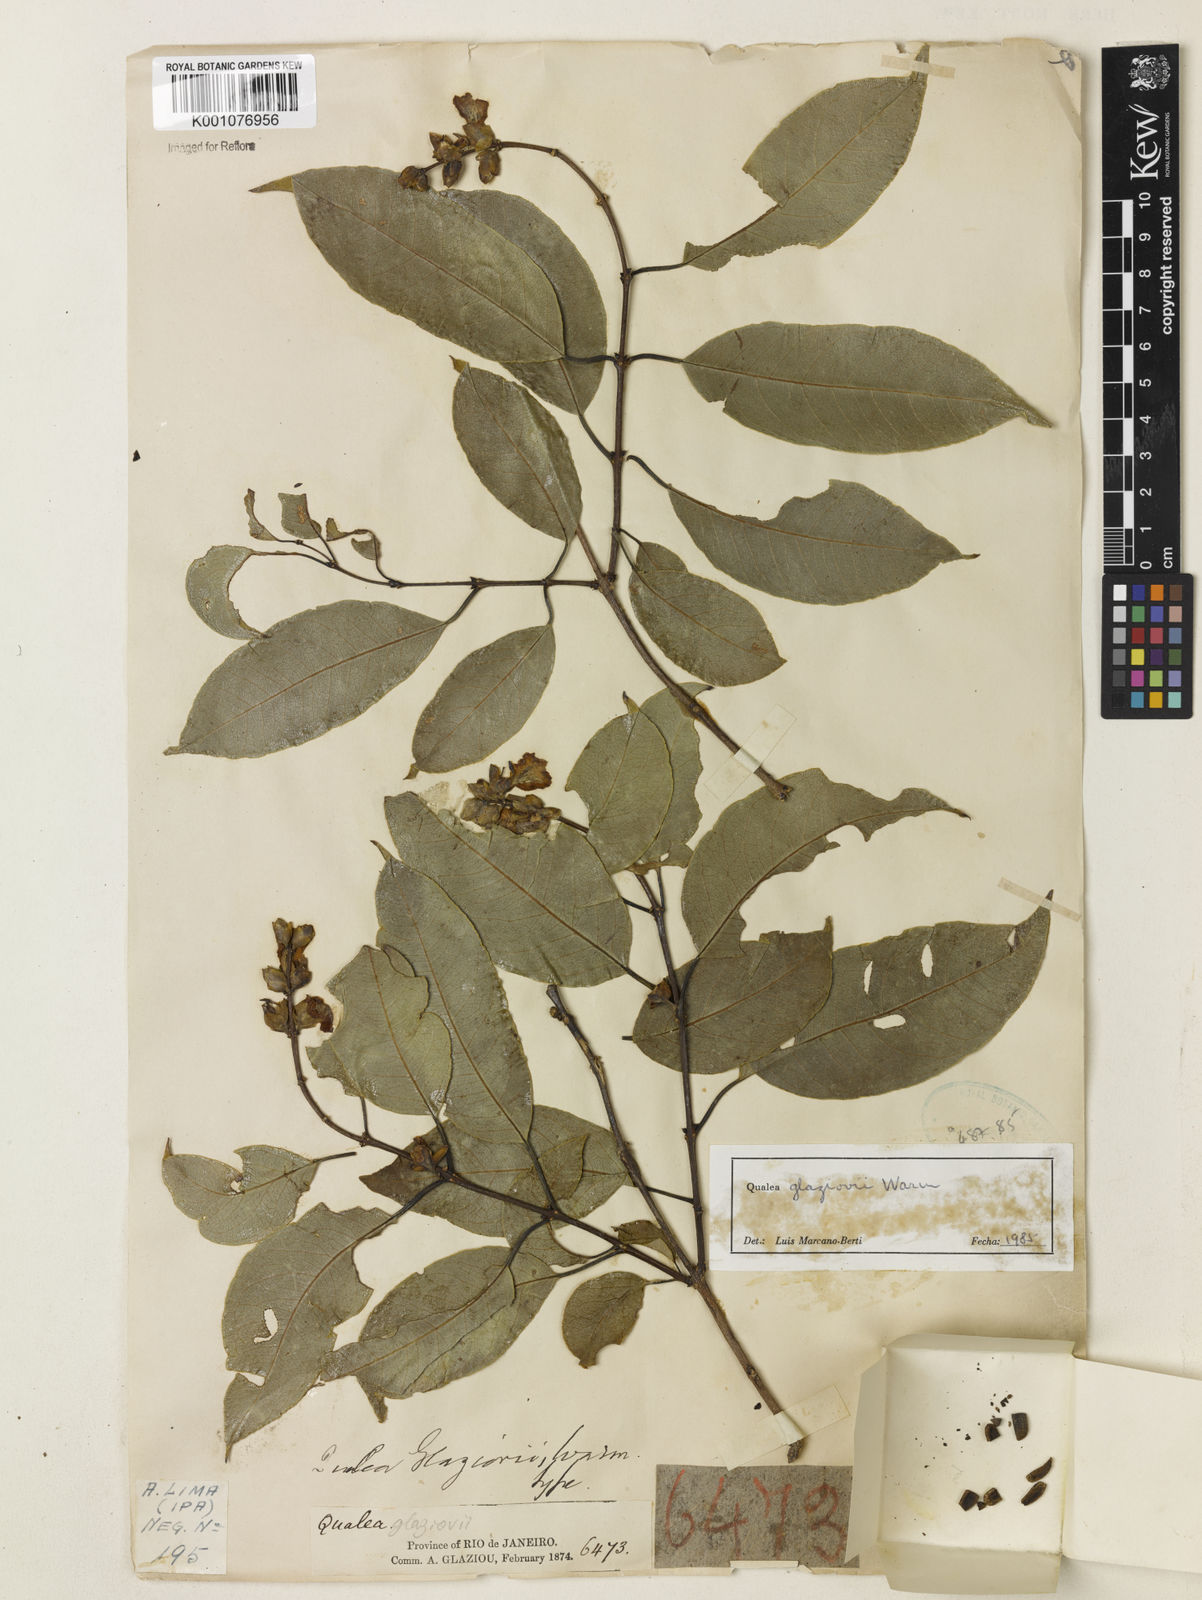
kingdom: Plantae
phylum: Tracheophyta
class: Magnoliopsida
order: Myrtales
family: Vochysiaceae
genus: Qualea
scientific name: Qualea glaziovii
